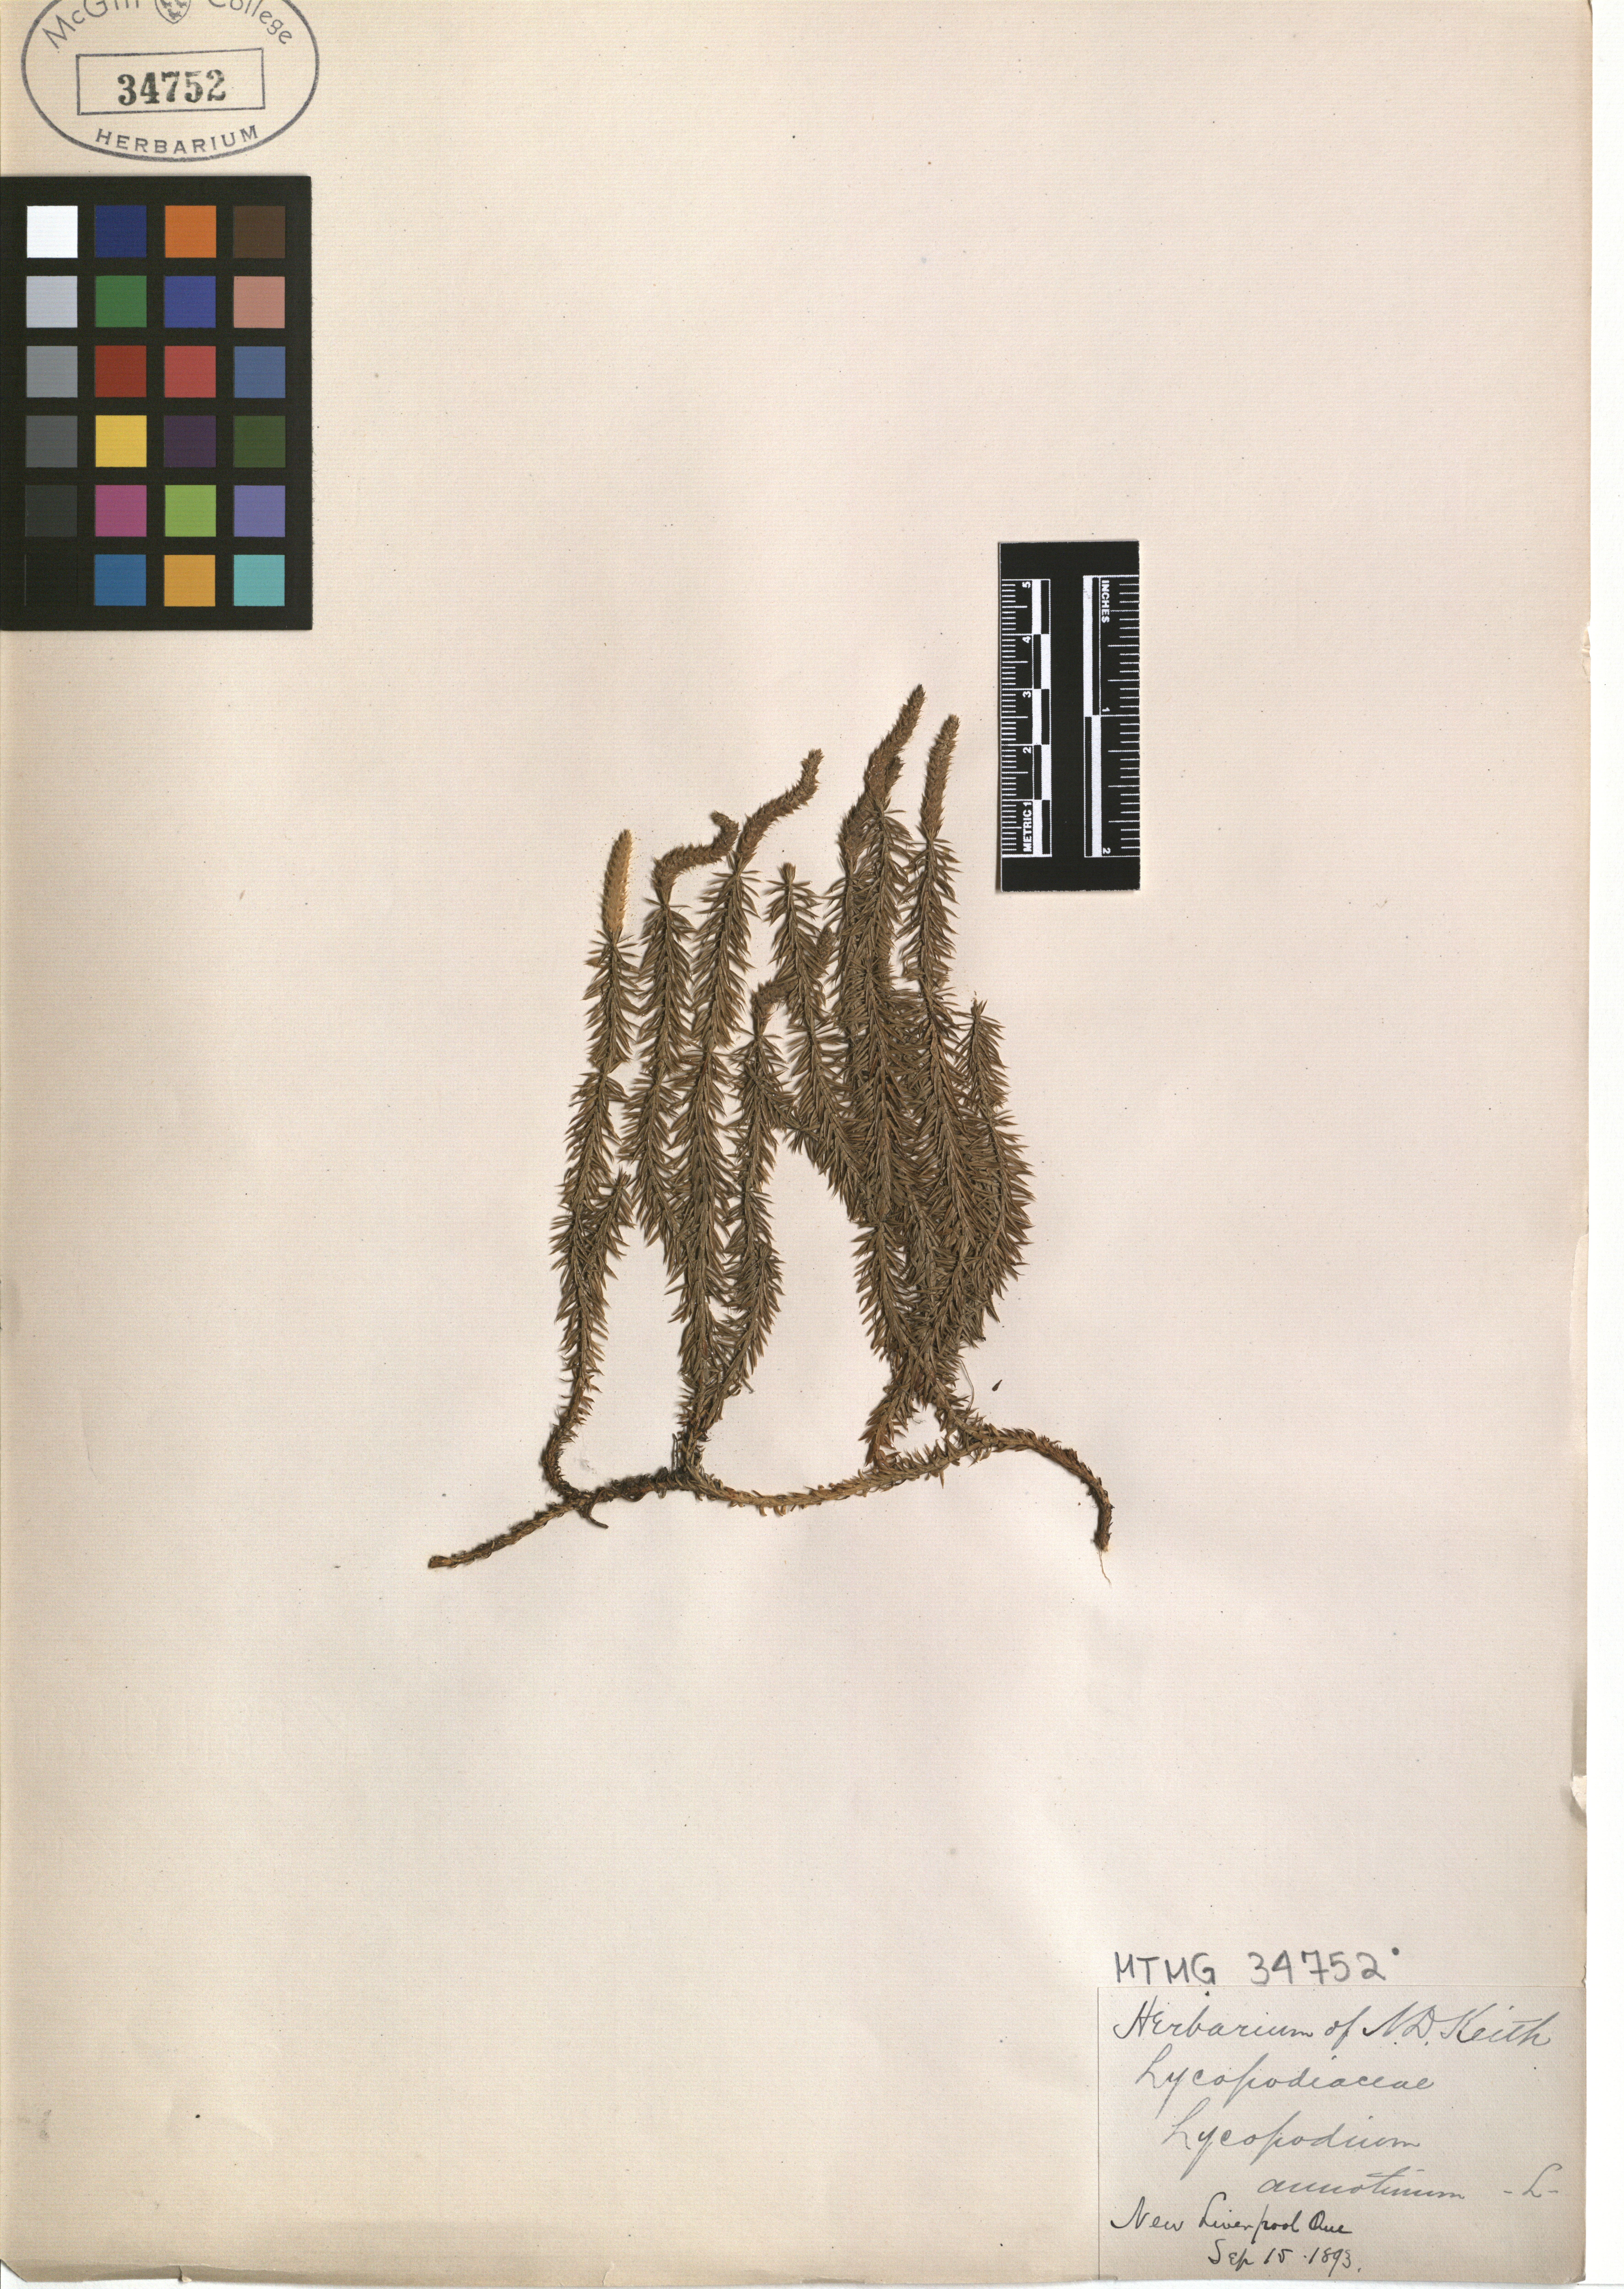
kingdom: Plantae
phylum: Tracheophyta
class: Lycopodiopsida
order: Lycopodiales
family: Lycopodiaceae
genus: Spinulum
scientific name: Spinulum annotinum
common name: Interrupted club-moss
